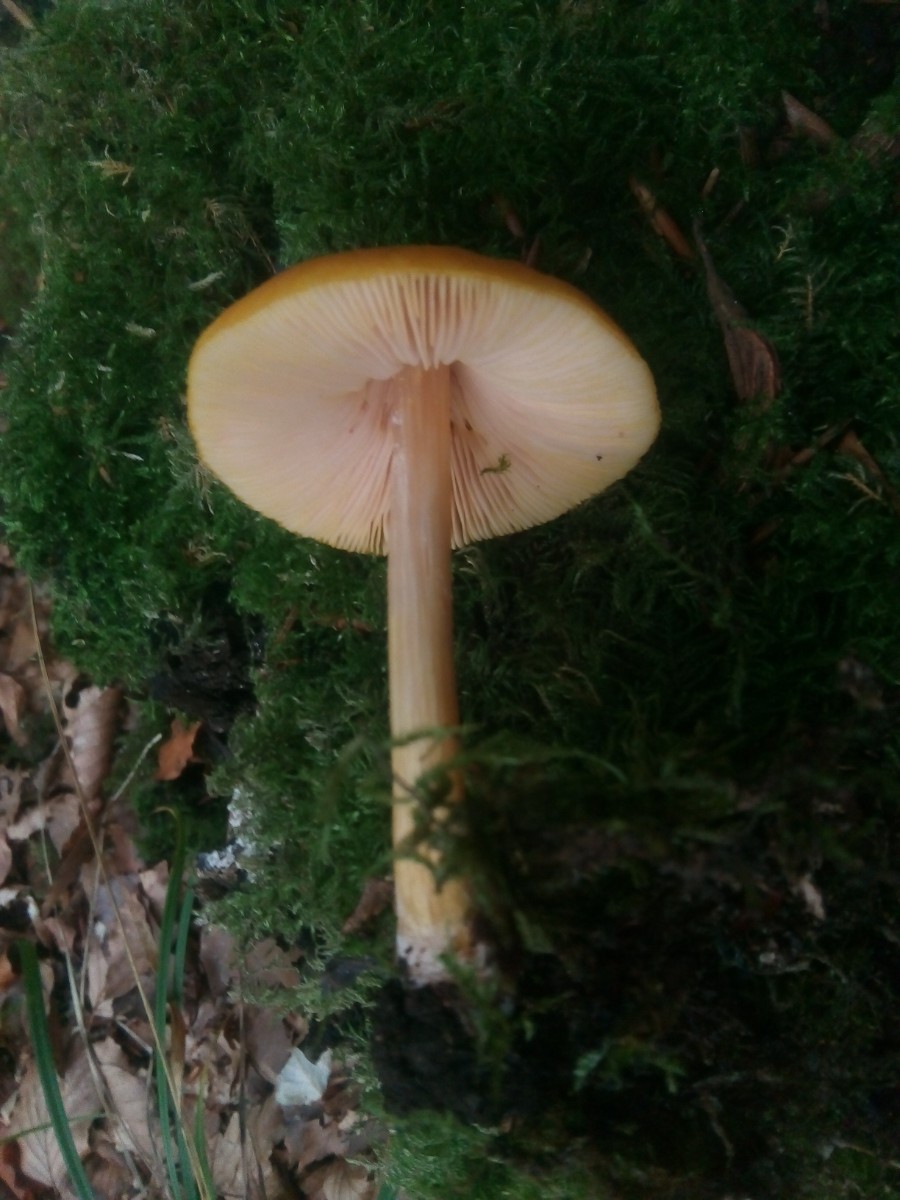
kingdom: Fungi
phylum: Basidiomycota
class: Agaricomycetes
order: Agaricales
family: Pluteaceae
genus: Pluteus
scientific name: Pluteus leoninus
